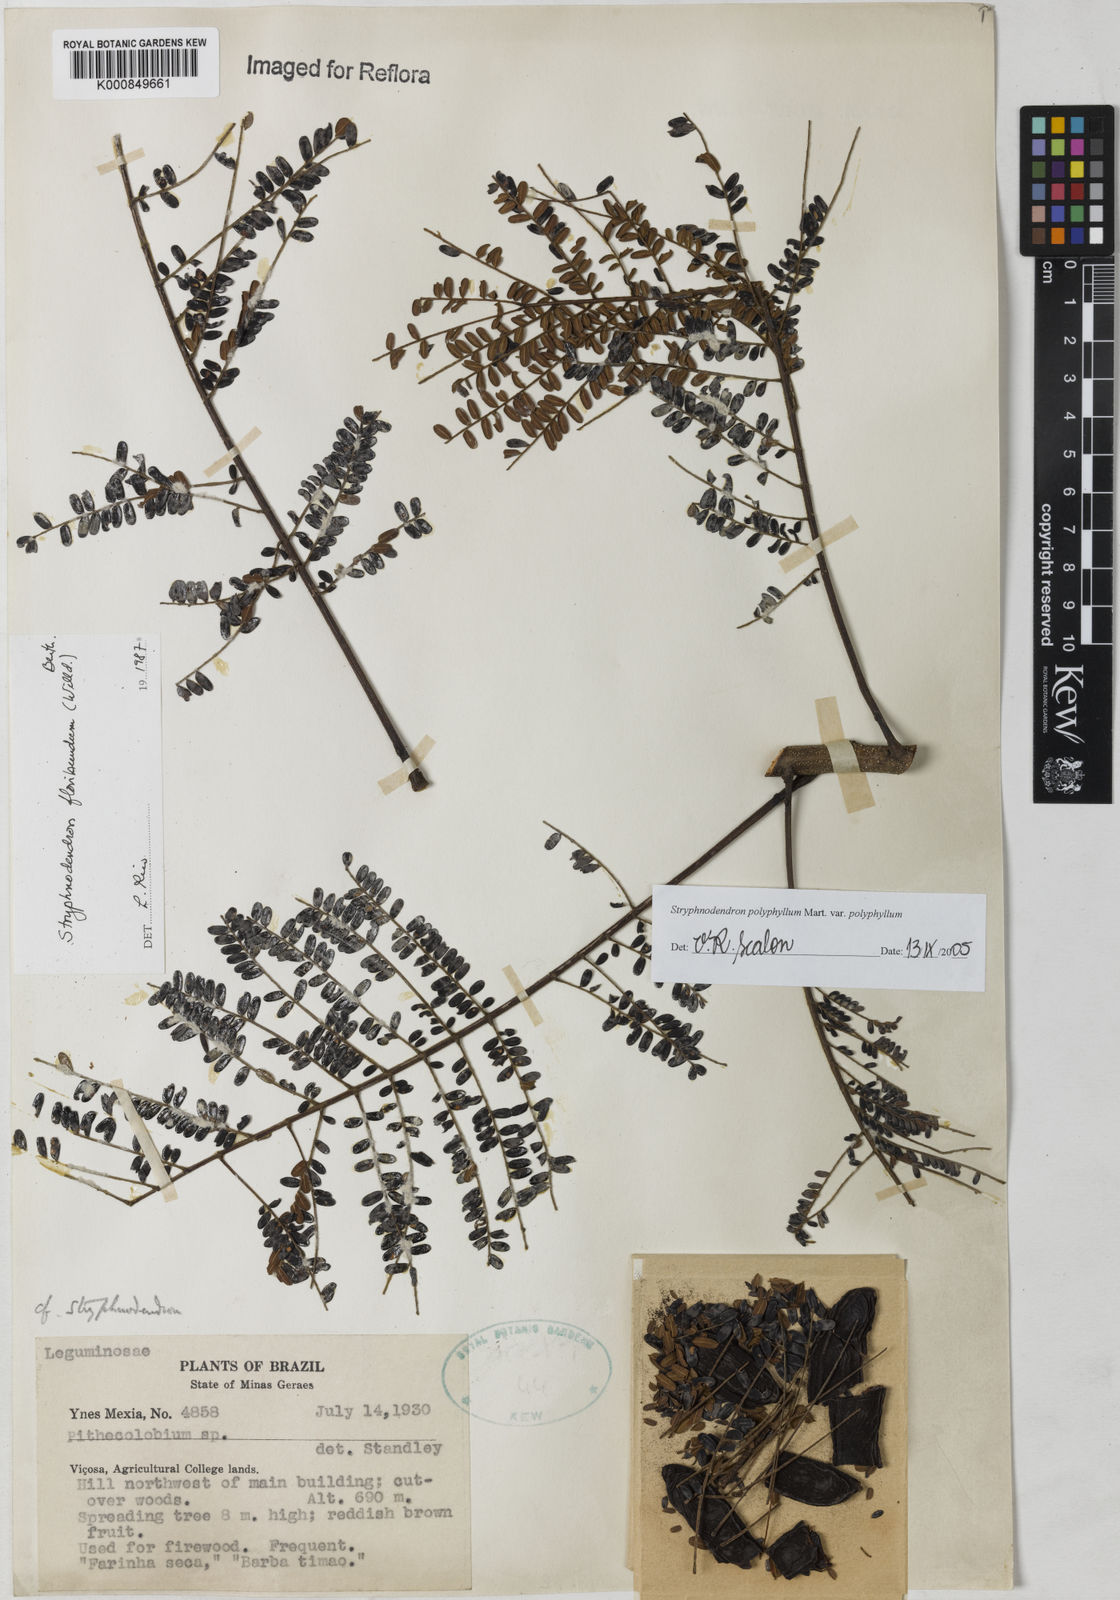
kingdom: Plantae
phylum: Tracheophyta
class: Magnoliopsida
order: Fabales
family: Fabaceae
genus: Stryphnodendron
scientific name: Stryphnodendron polyphyllum
